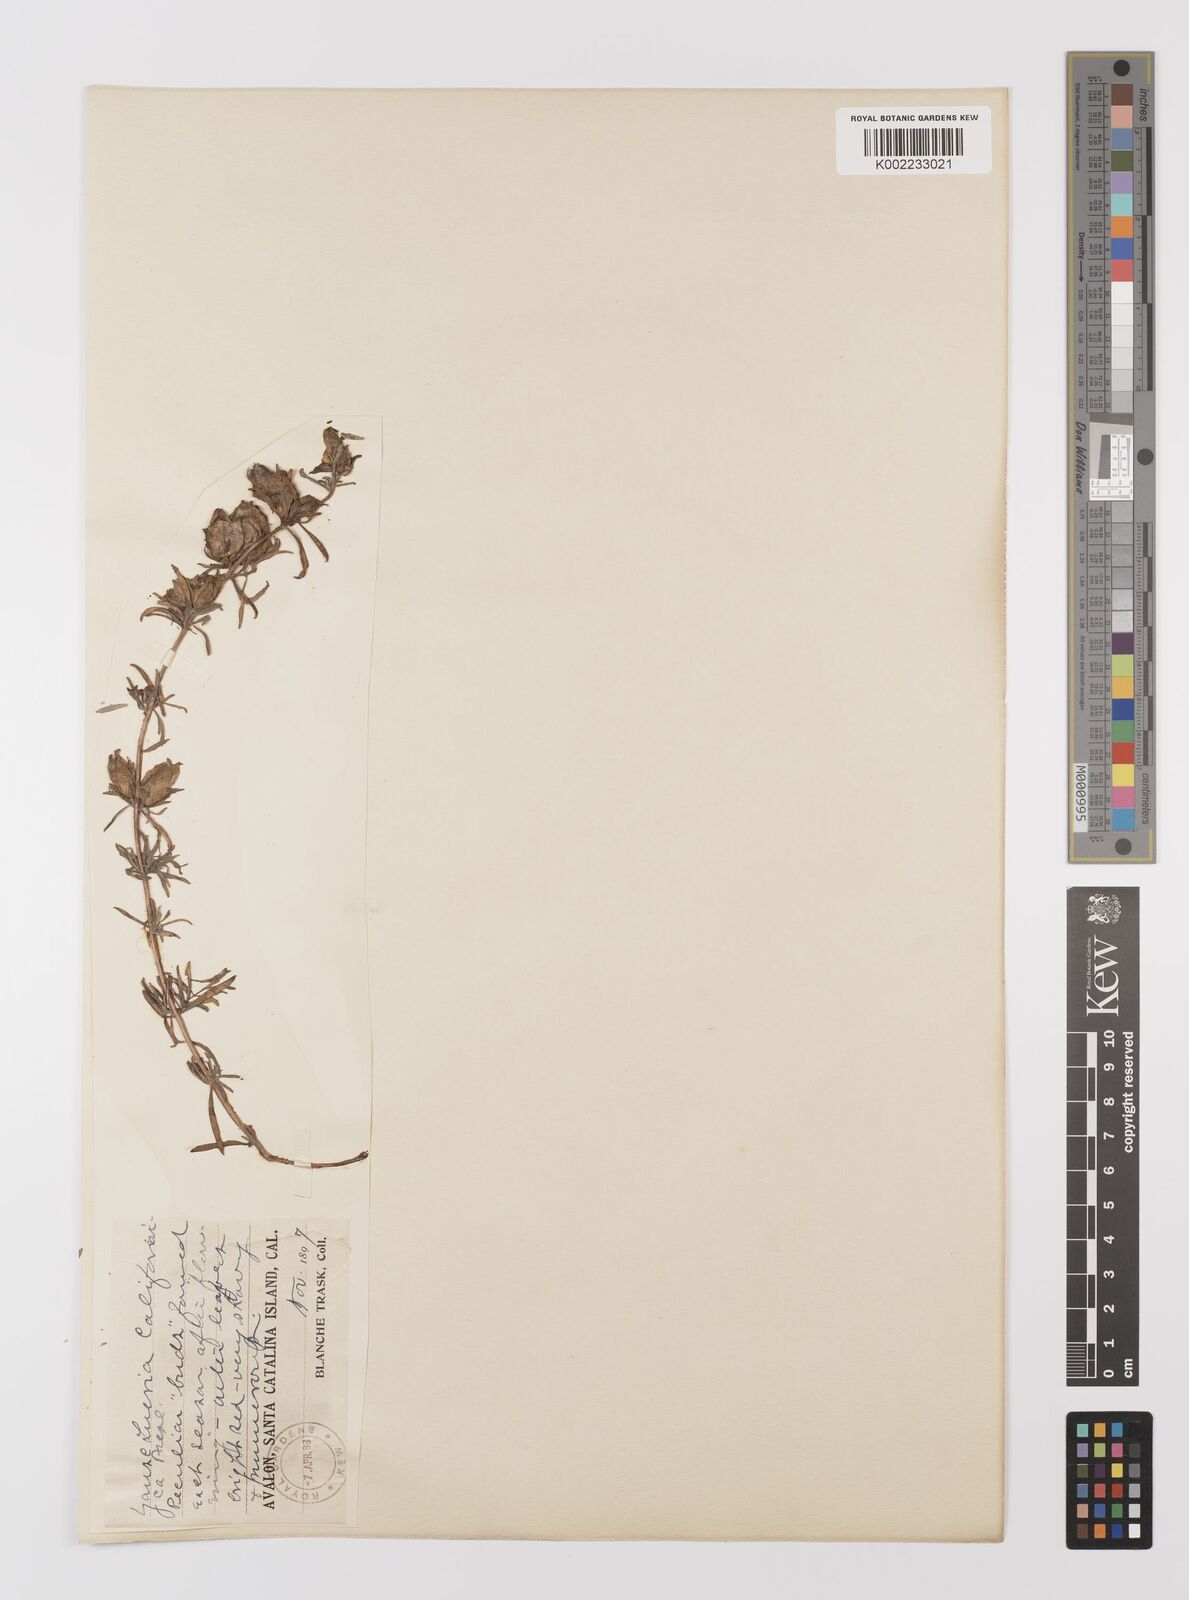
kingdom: Plantae
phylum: Tracheophyta
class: Magnoliopsida
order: Myrtales
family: Onagraceae
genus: Epilobium
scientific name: Epilobium canum
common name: California-fuchsia
